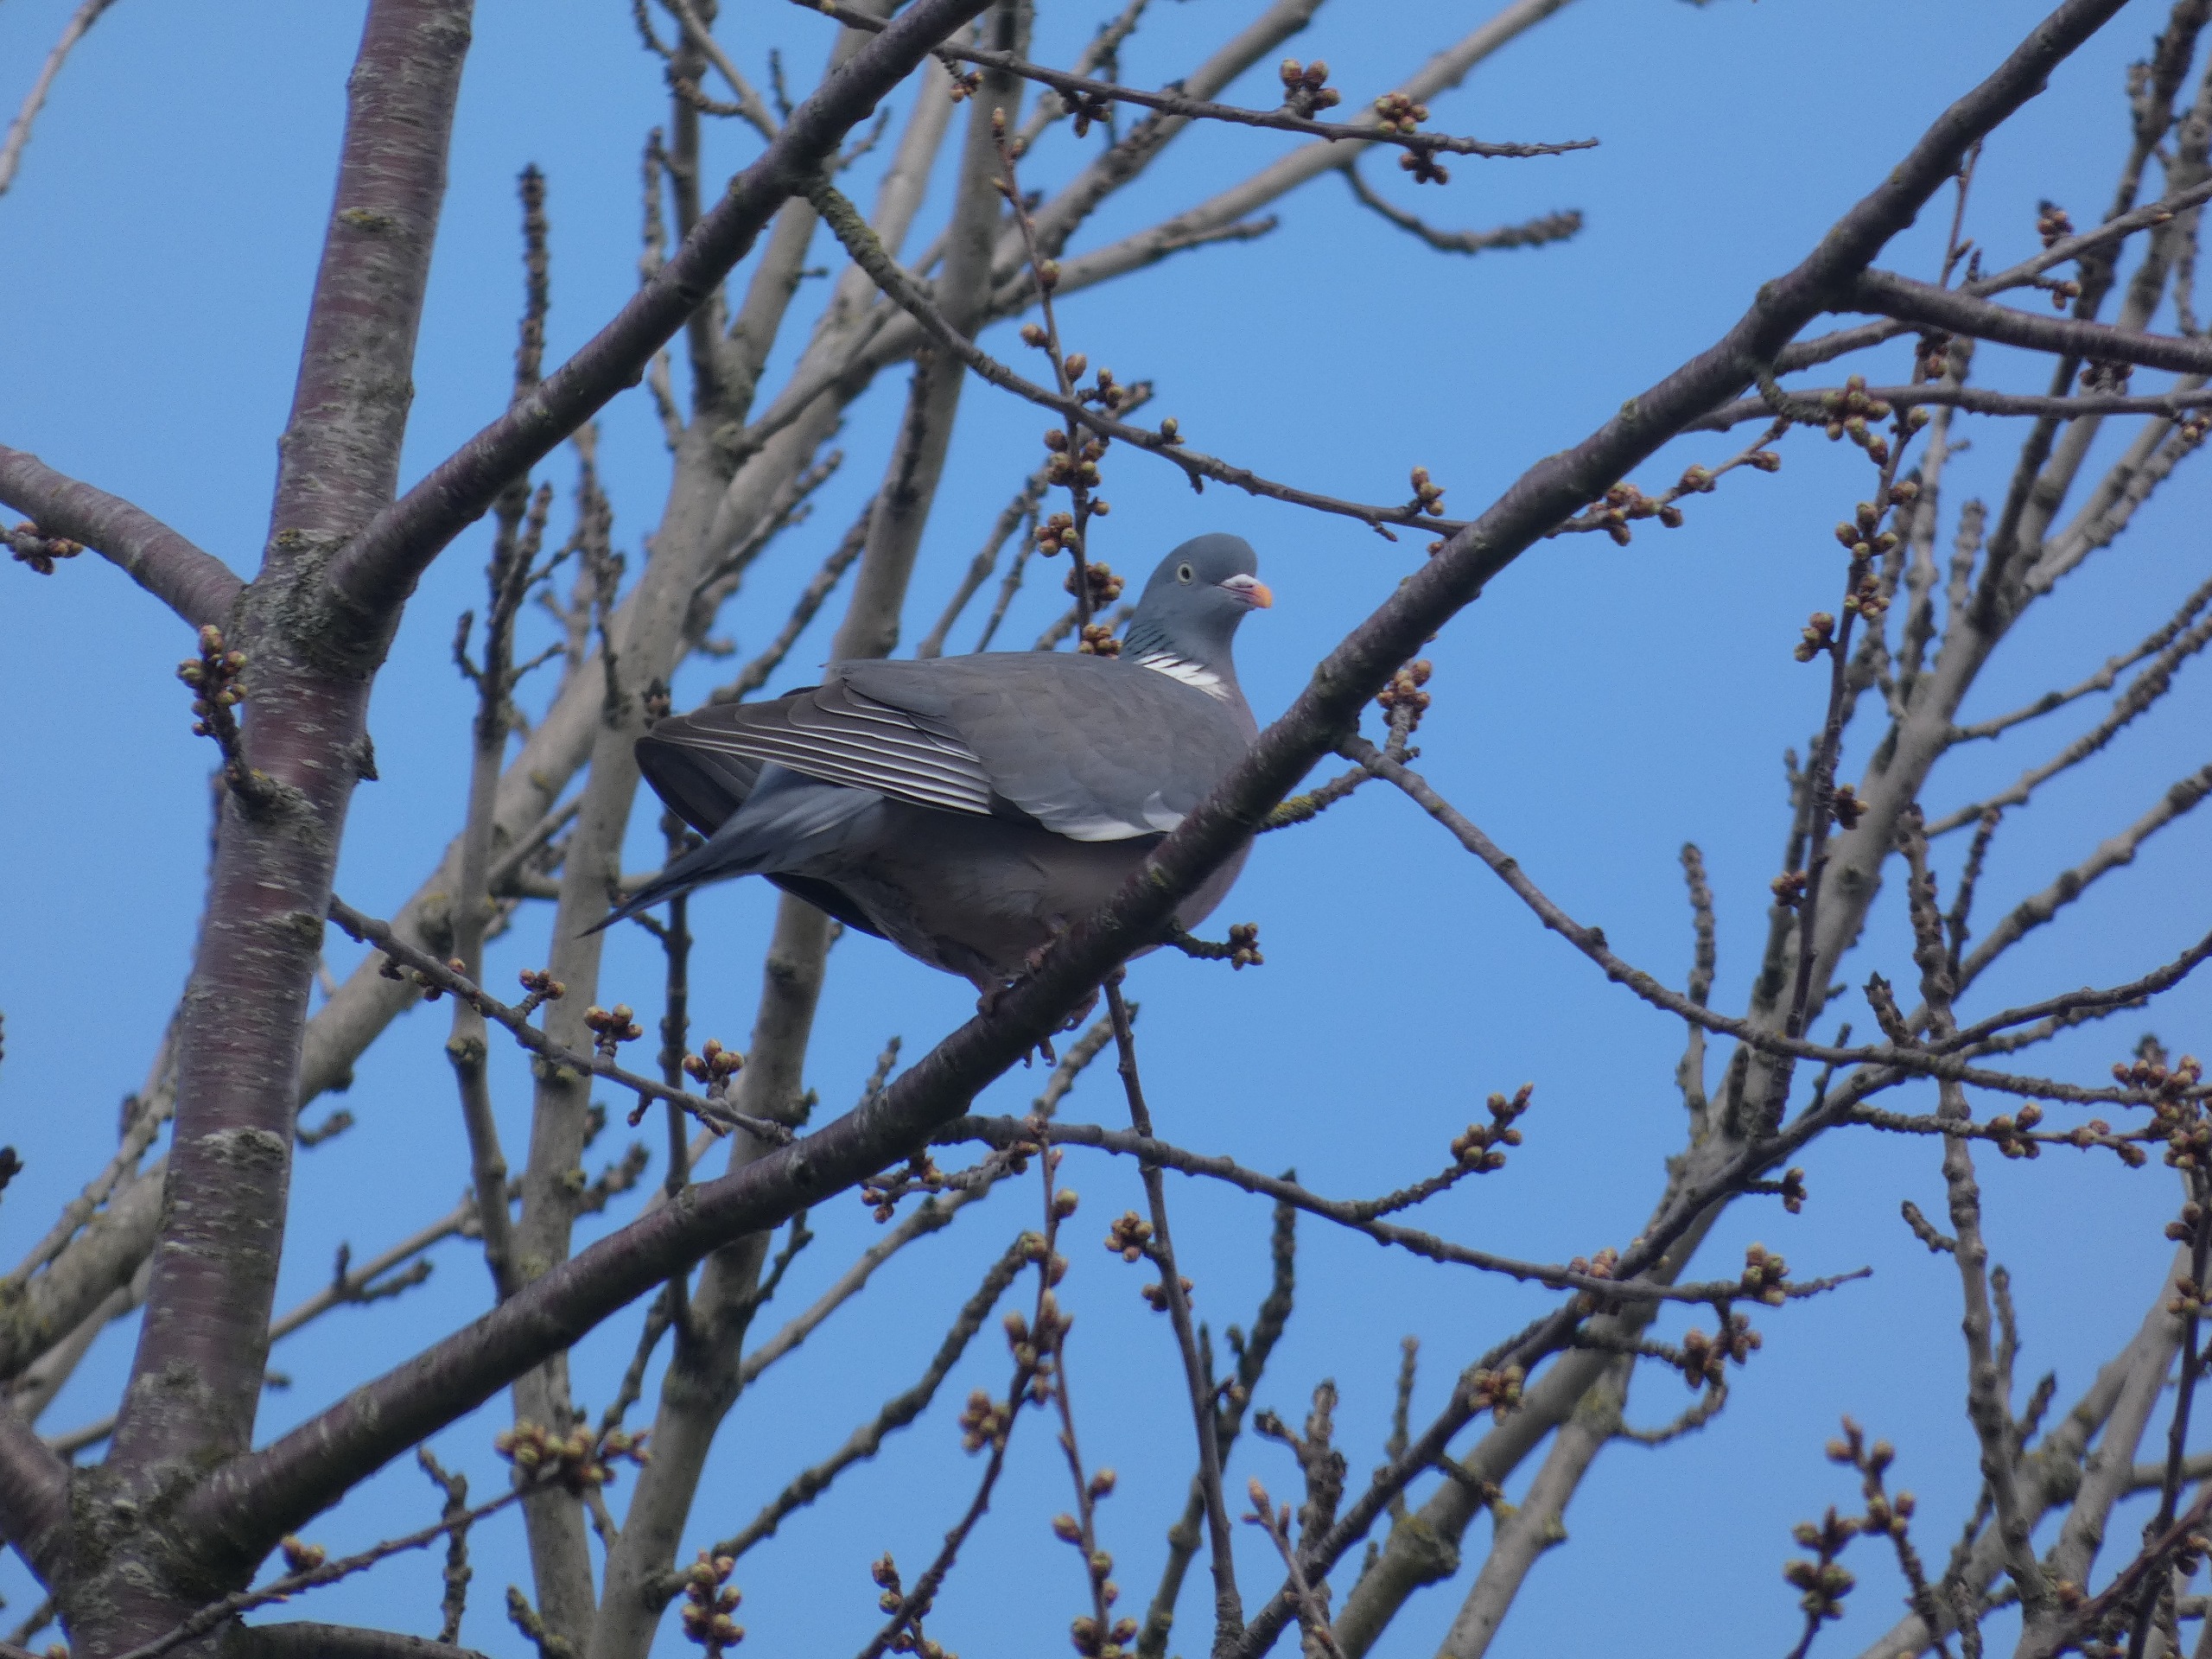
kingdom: Animalia
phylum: Chordata
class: Aves
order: Columbiformes
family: Columbidae
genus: Columba
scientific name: Columba palumbus
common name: Ringdue
